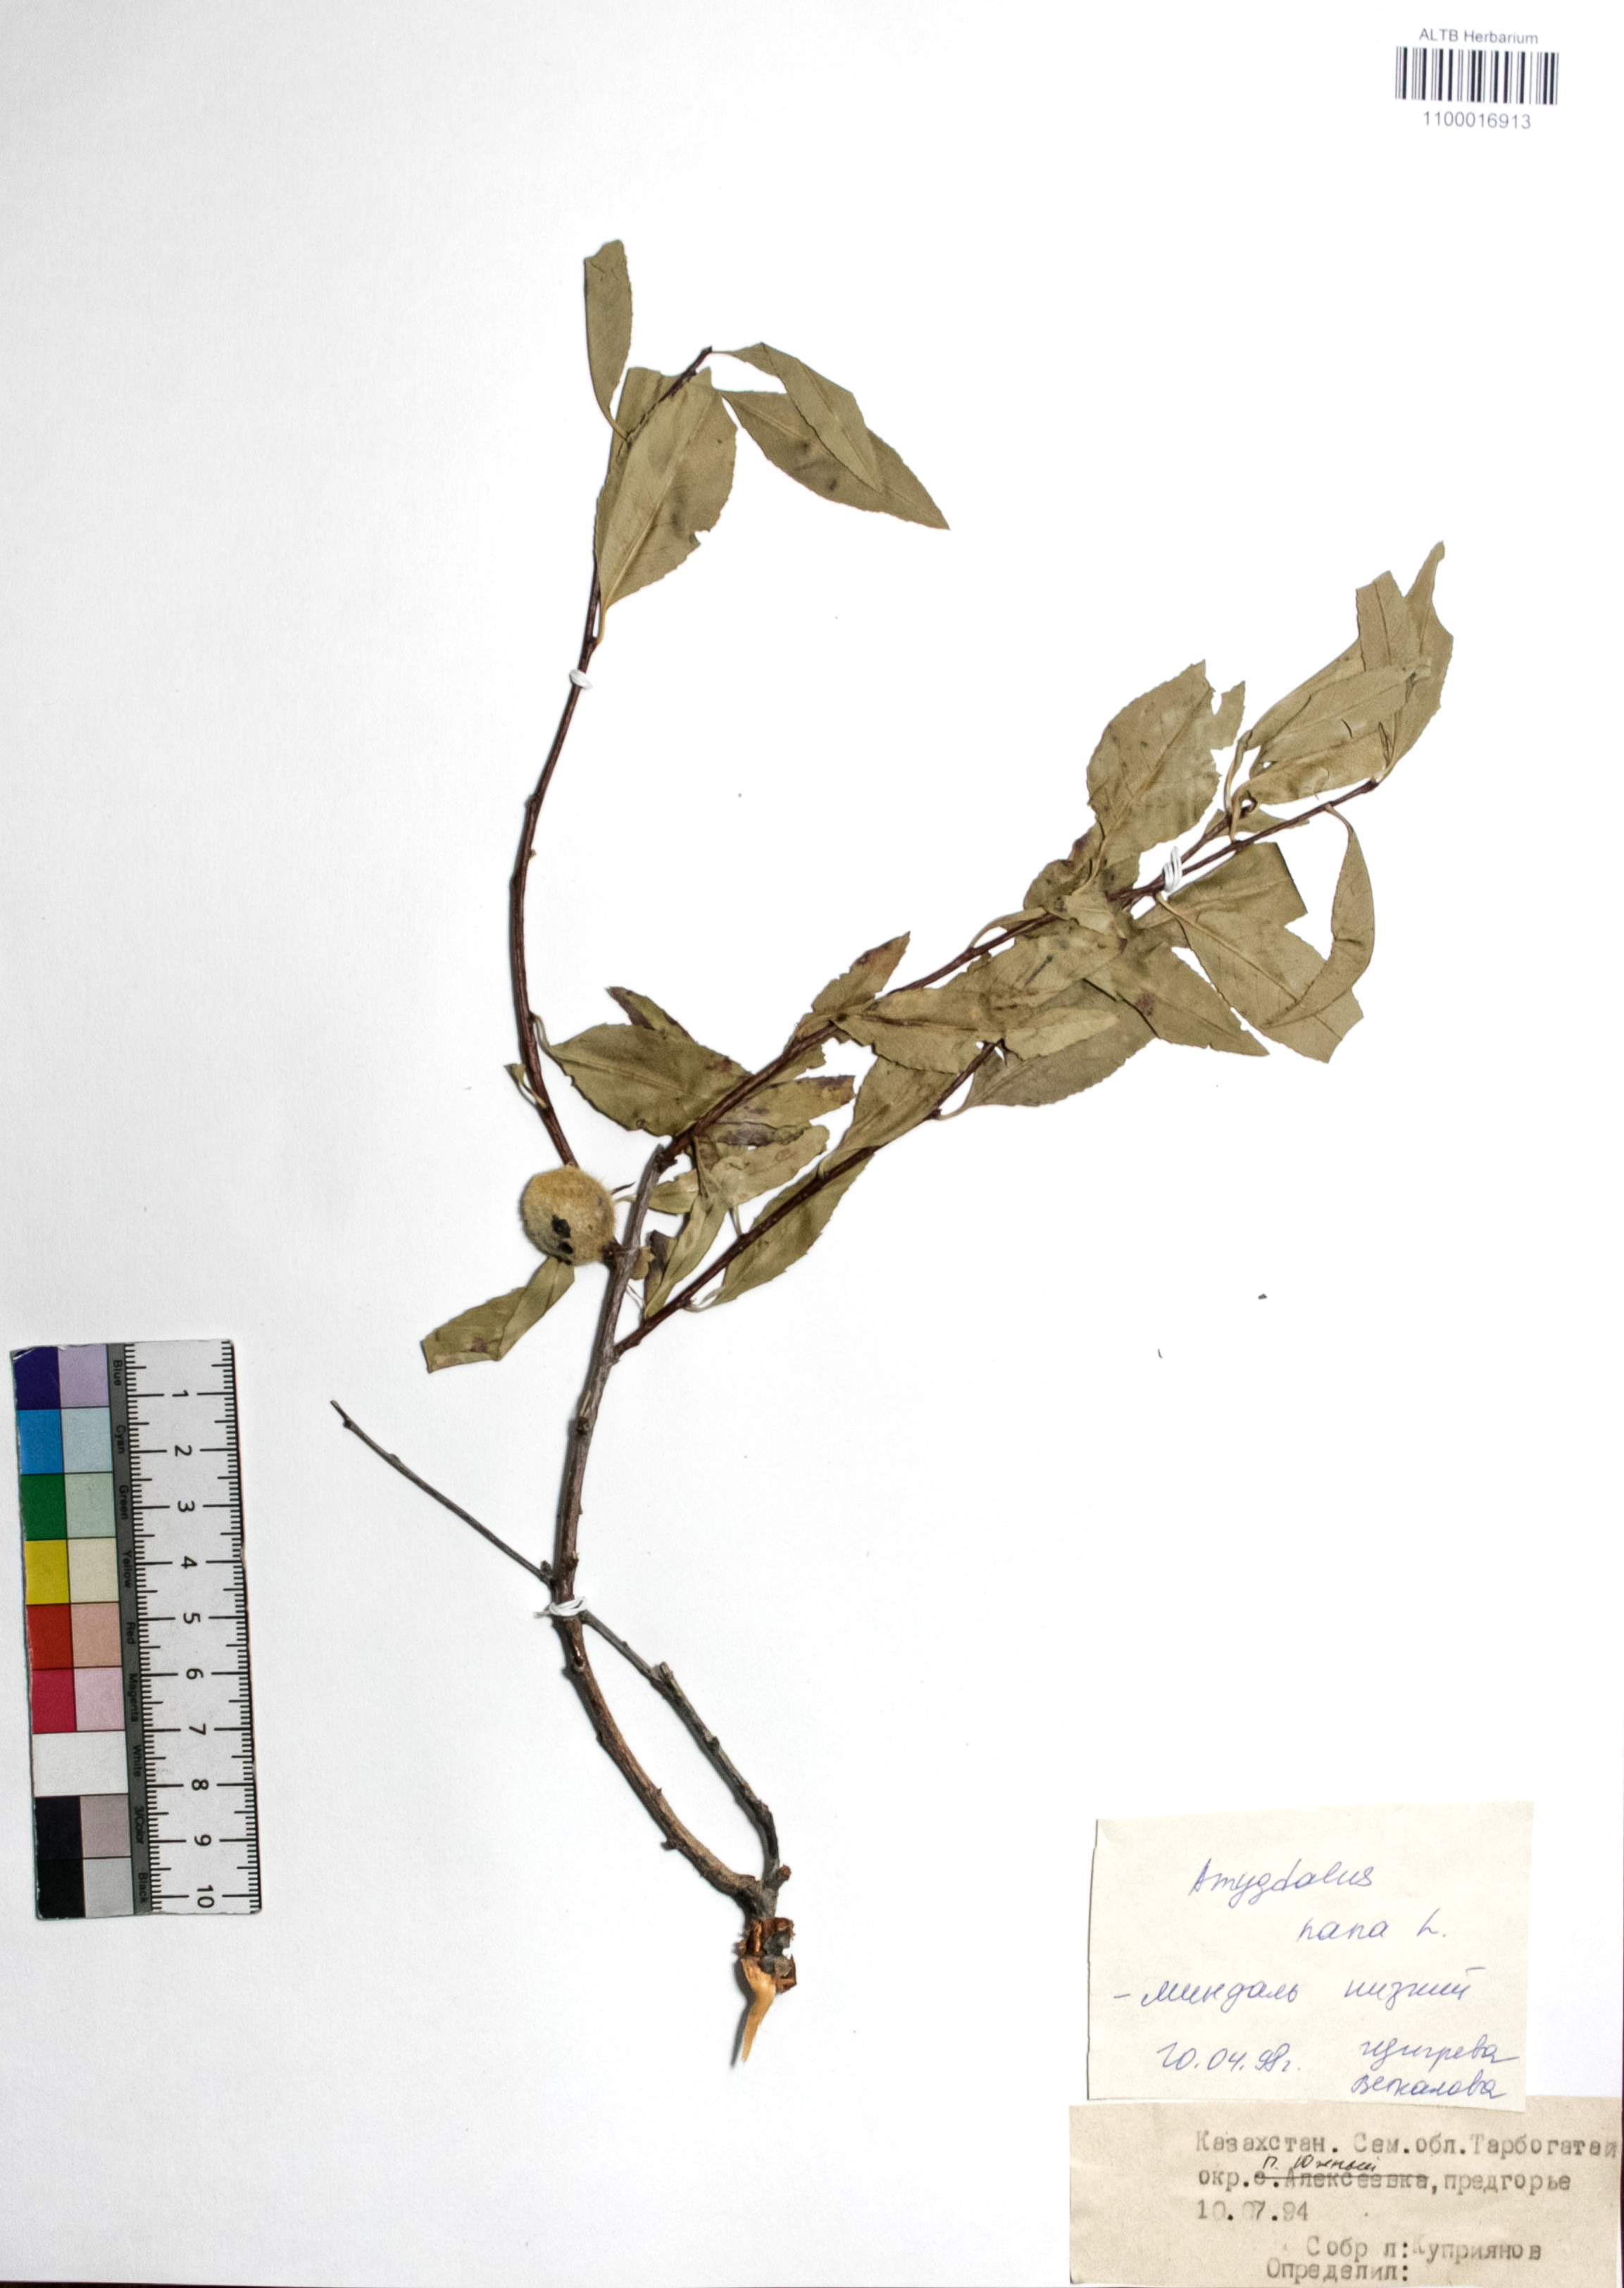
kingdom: Plantae
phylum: Tracheophyta
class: Magnoliopsida
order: Rosales
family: Rosaceae
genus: Prunus
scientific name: Prunus tenella
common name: Dwarf russian almond
